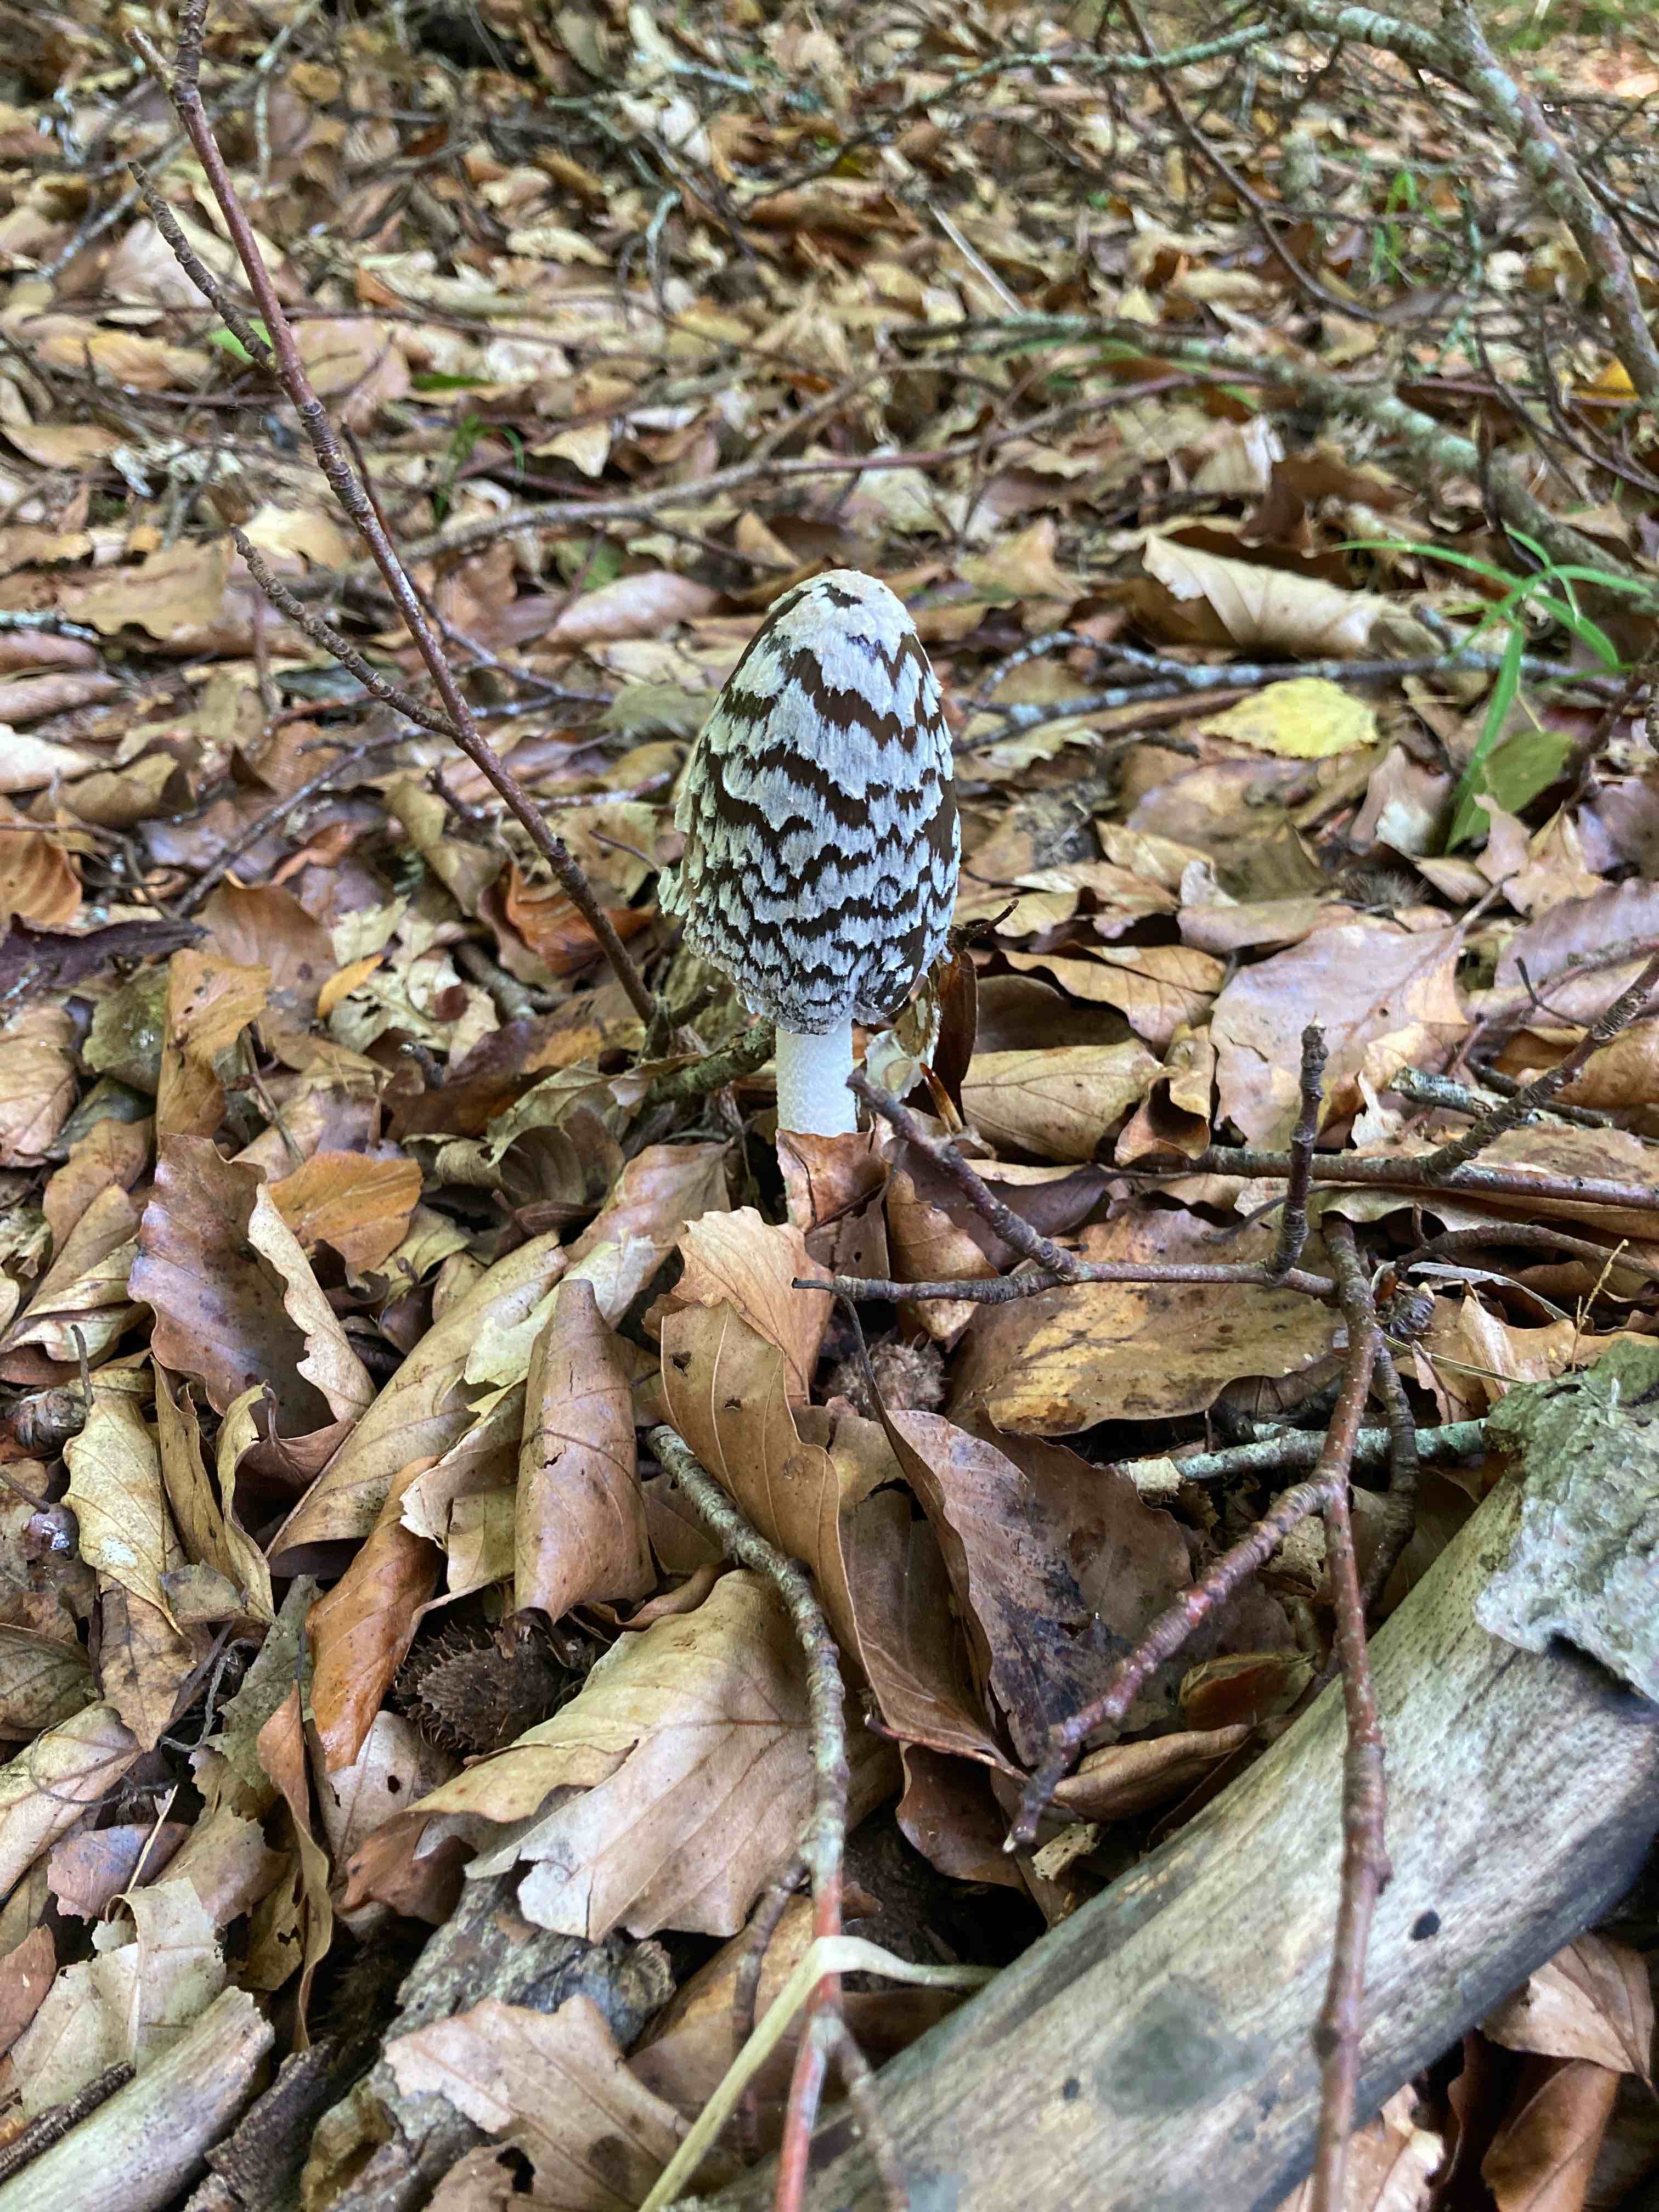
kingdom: Fungi
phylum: Basidiomycota
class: Agaricomycetes
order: Agaricales
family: Psathyrellaceae
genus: Coprinopsis
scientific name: Coprinopsis picacea
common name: skade-blækhat
